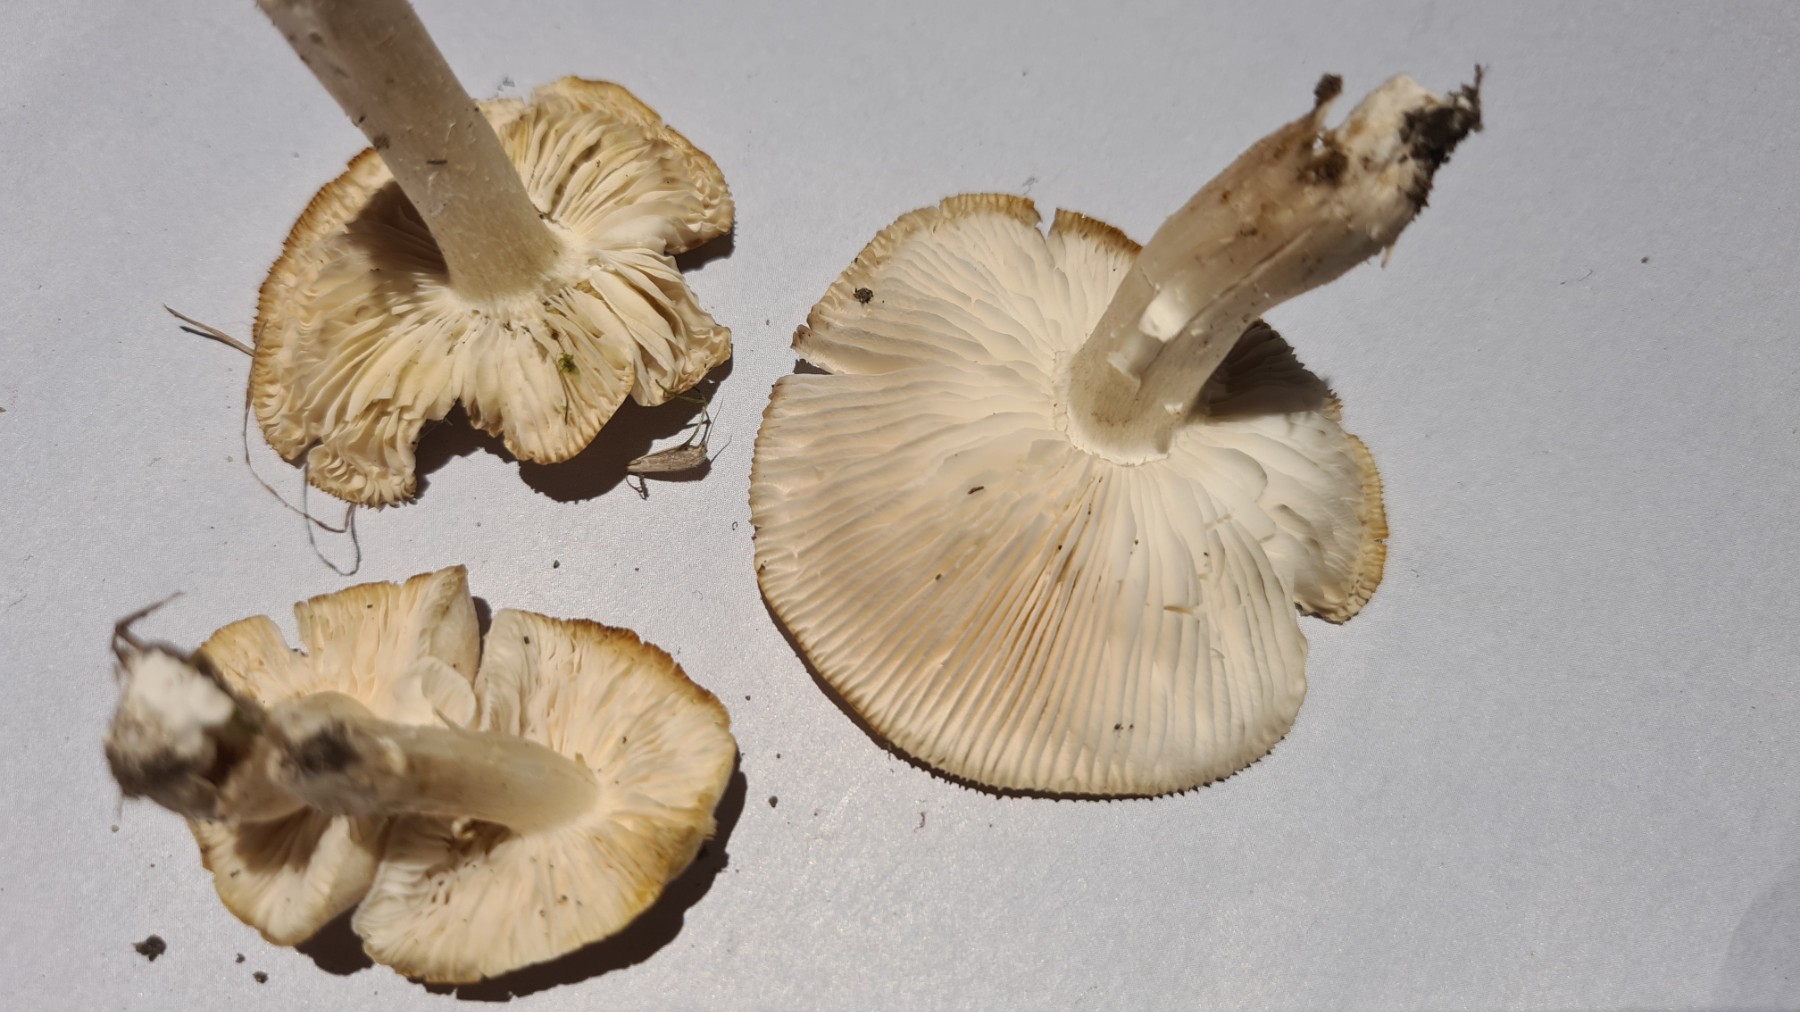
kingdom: Fungi
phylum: Basidiomycota
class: Agaricomycetes
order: Agaricales
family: Tricholomataceae
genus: Tricholoma
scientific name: Tricholoma argyraceum
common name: spids ridderhat
